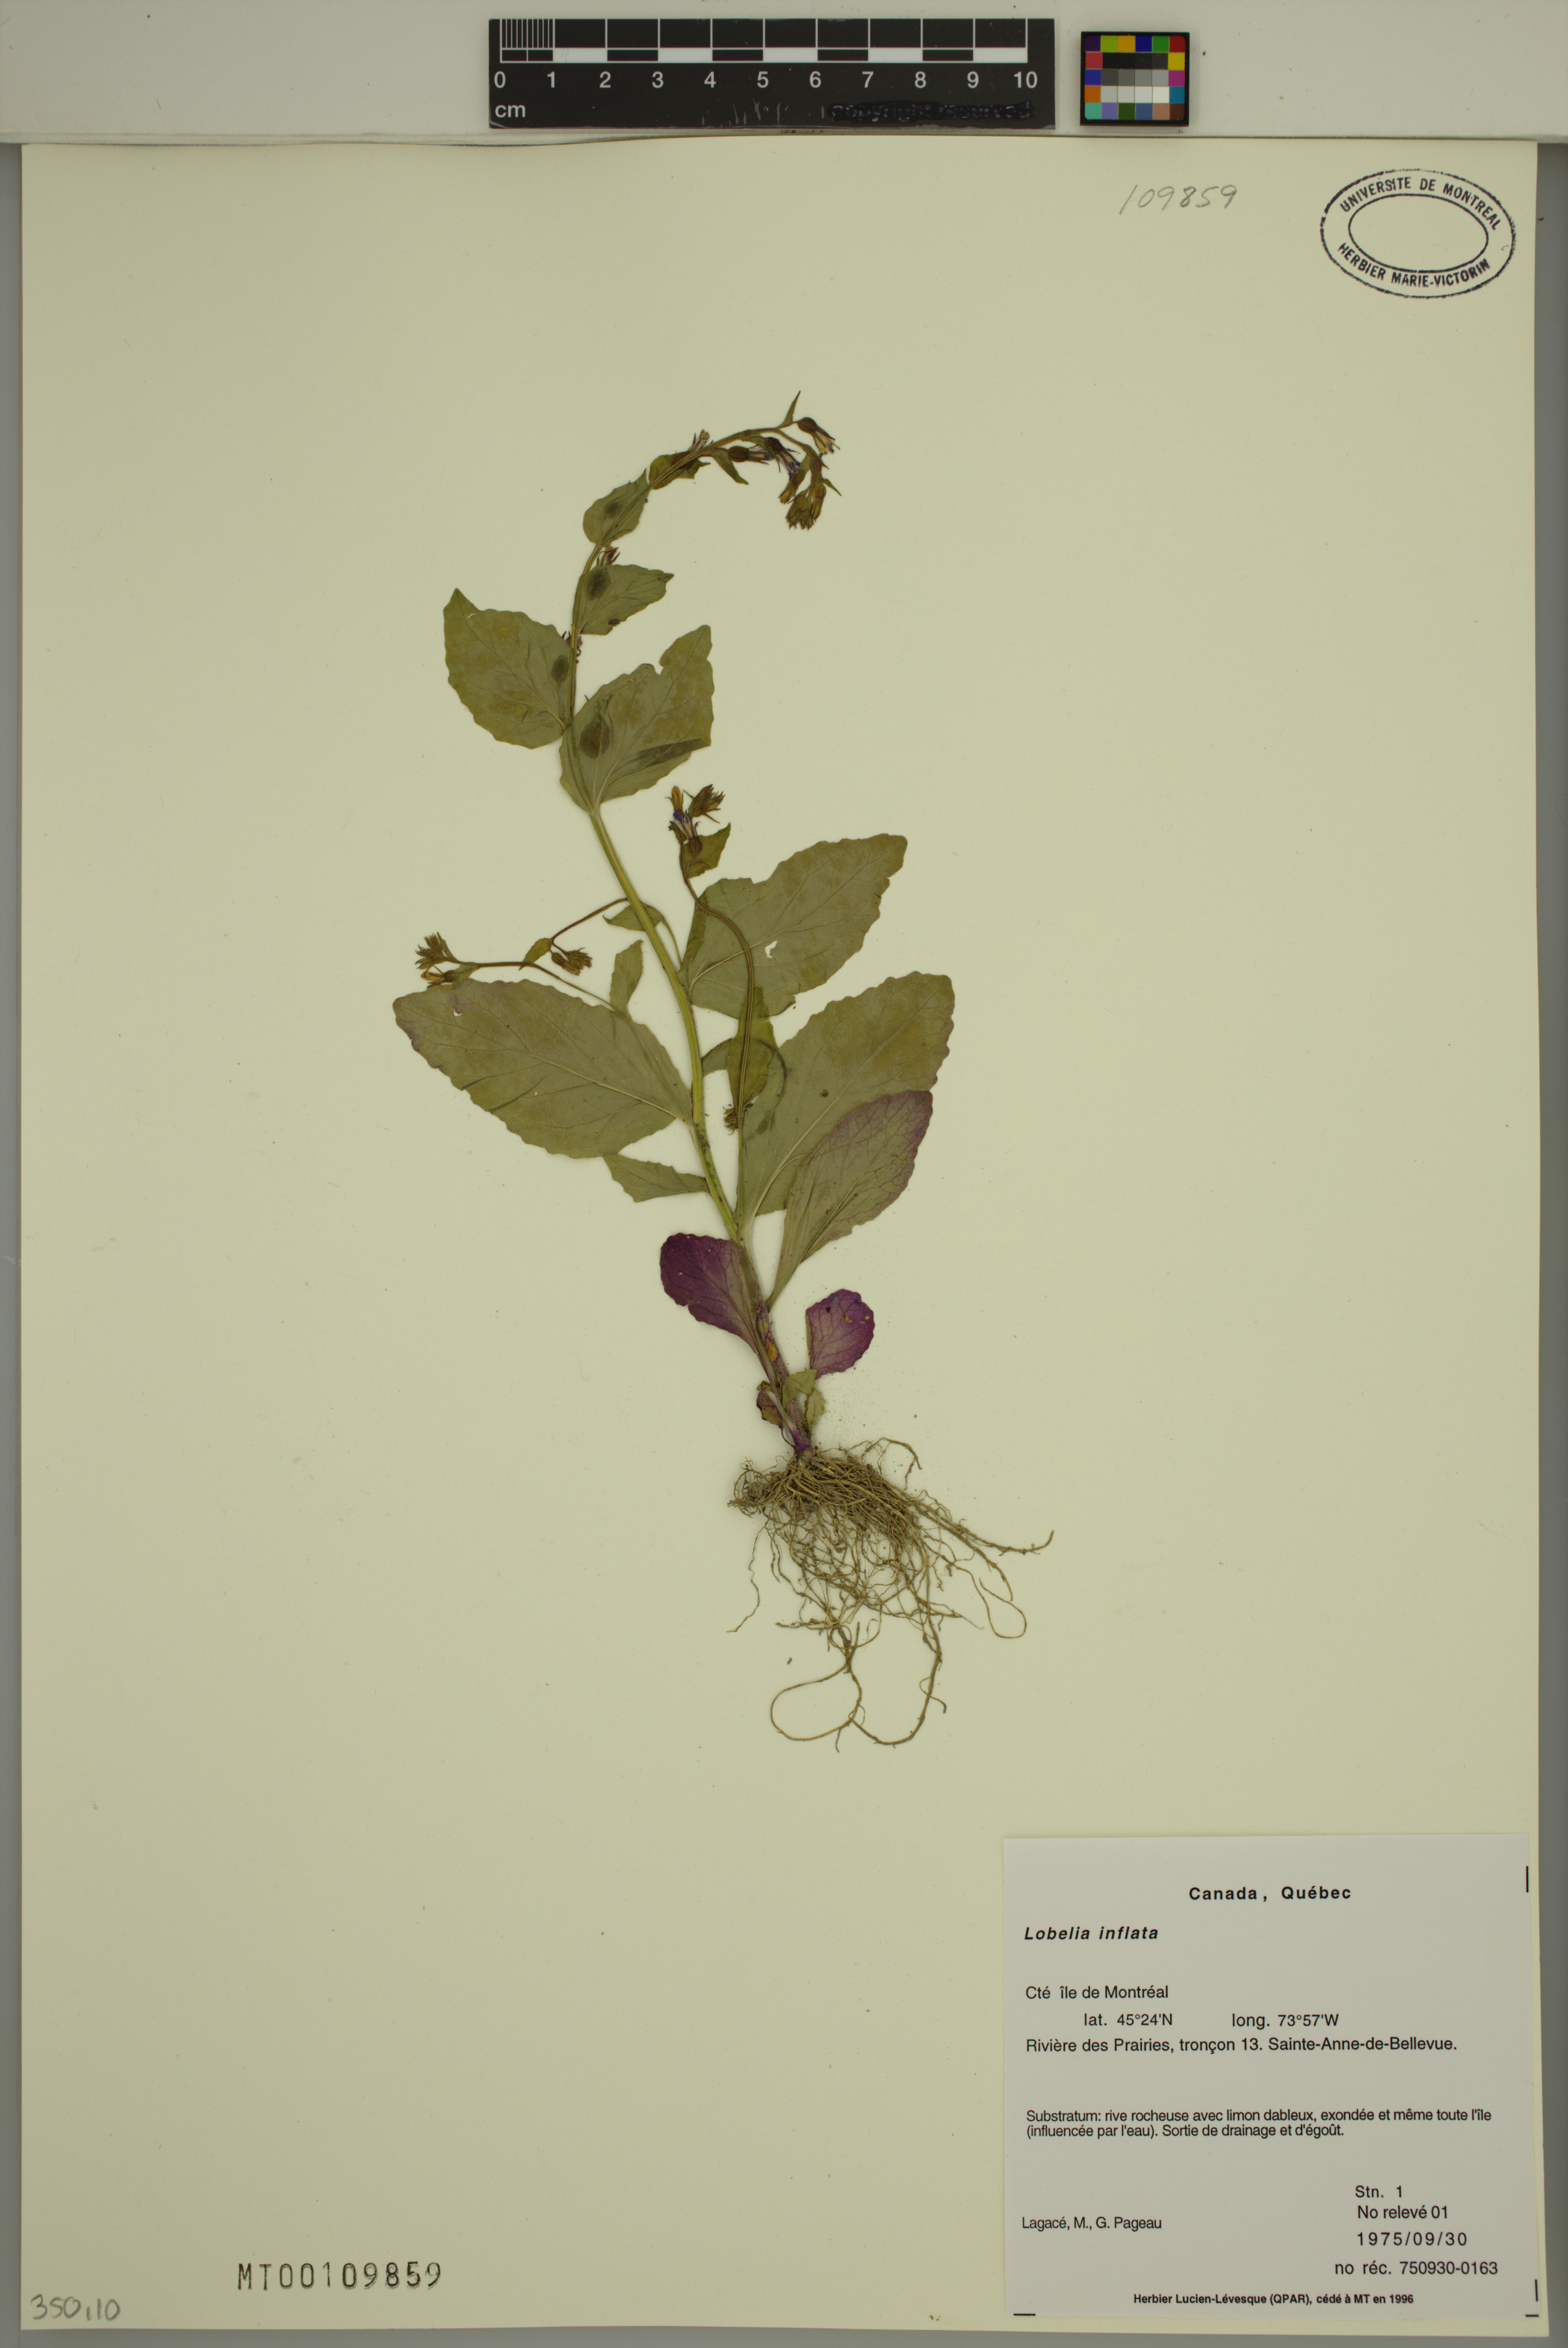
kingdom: Plantae
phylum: Tracheophyta
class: Magnoliopsida
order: Asterales
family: Campanulaceae
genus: Lobelia
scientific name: Lobelia inflata
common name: Indian tobacco
